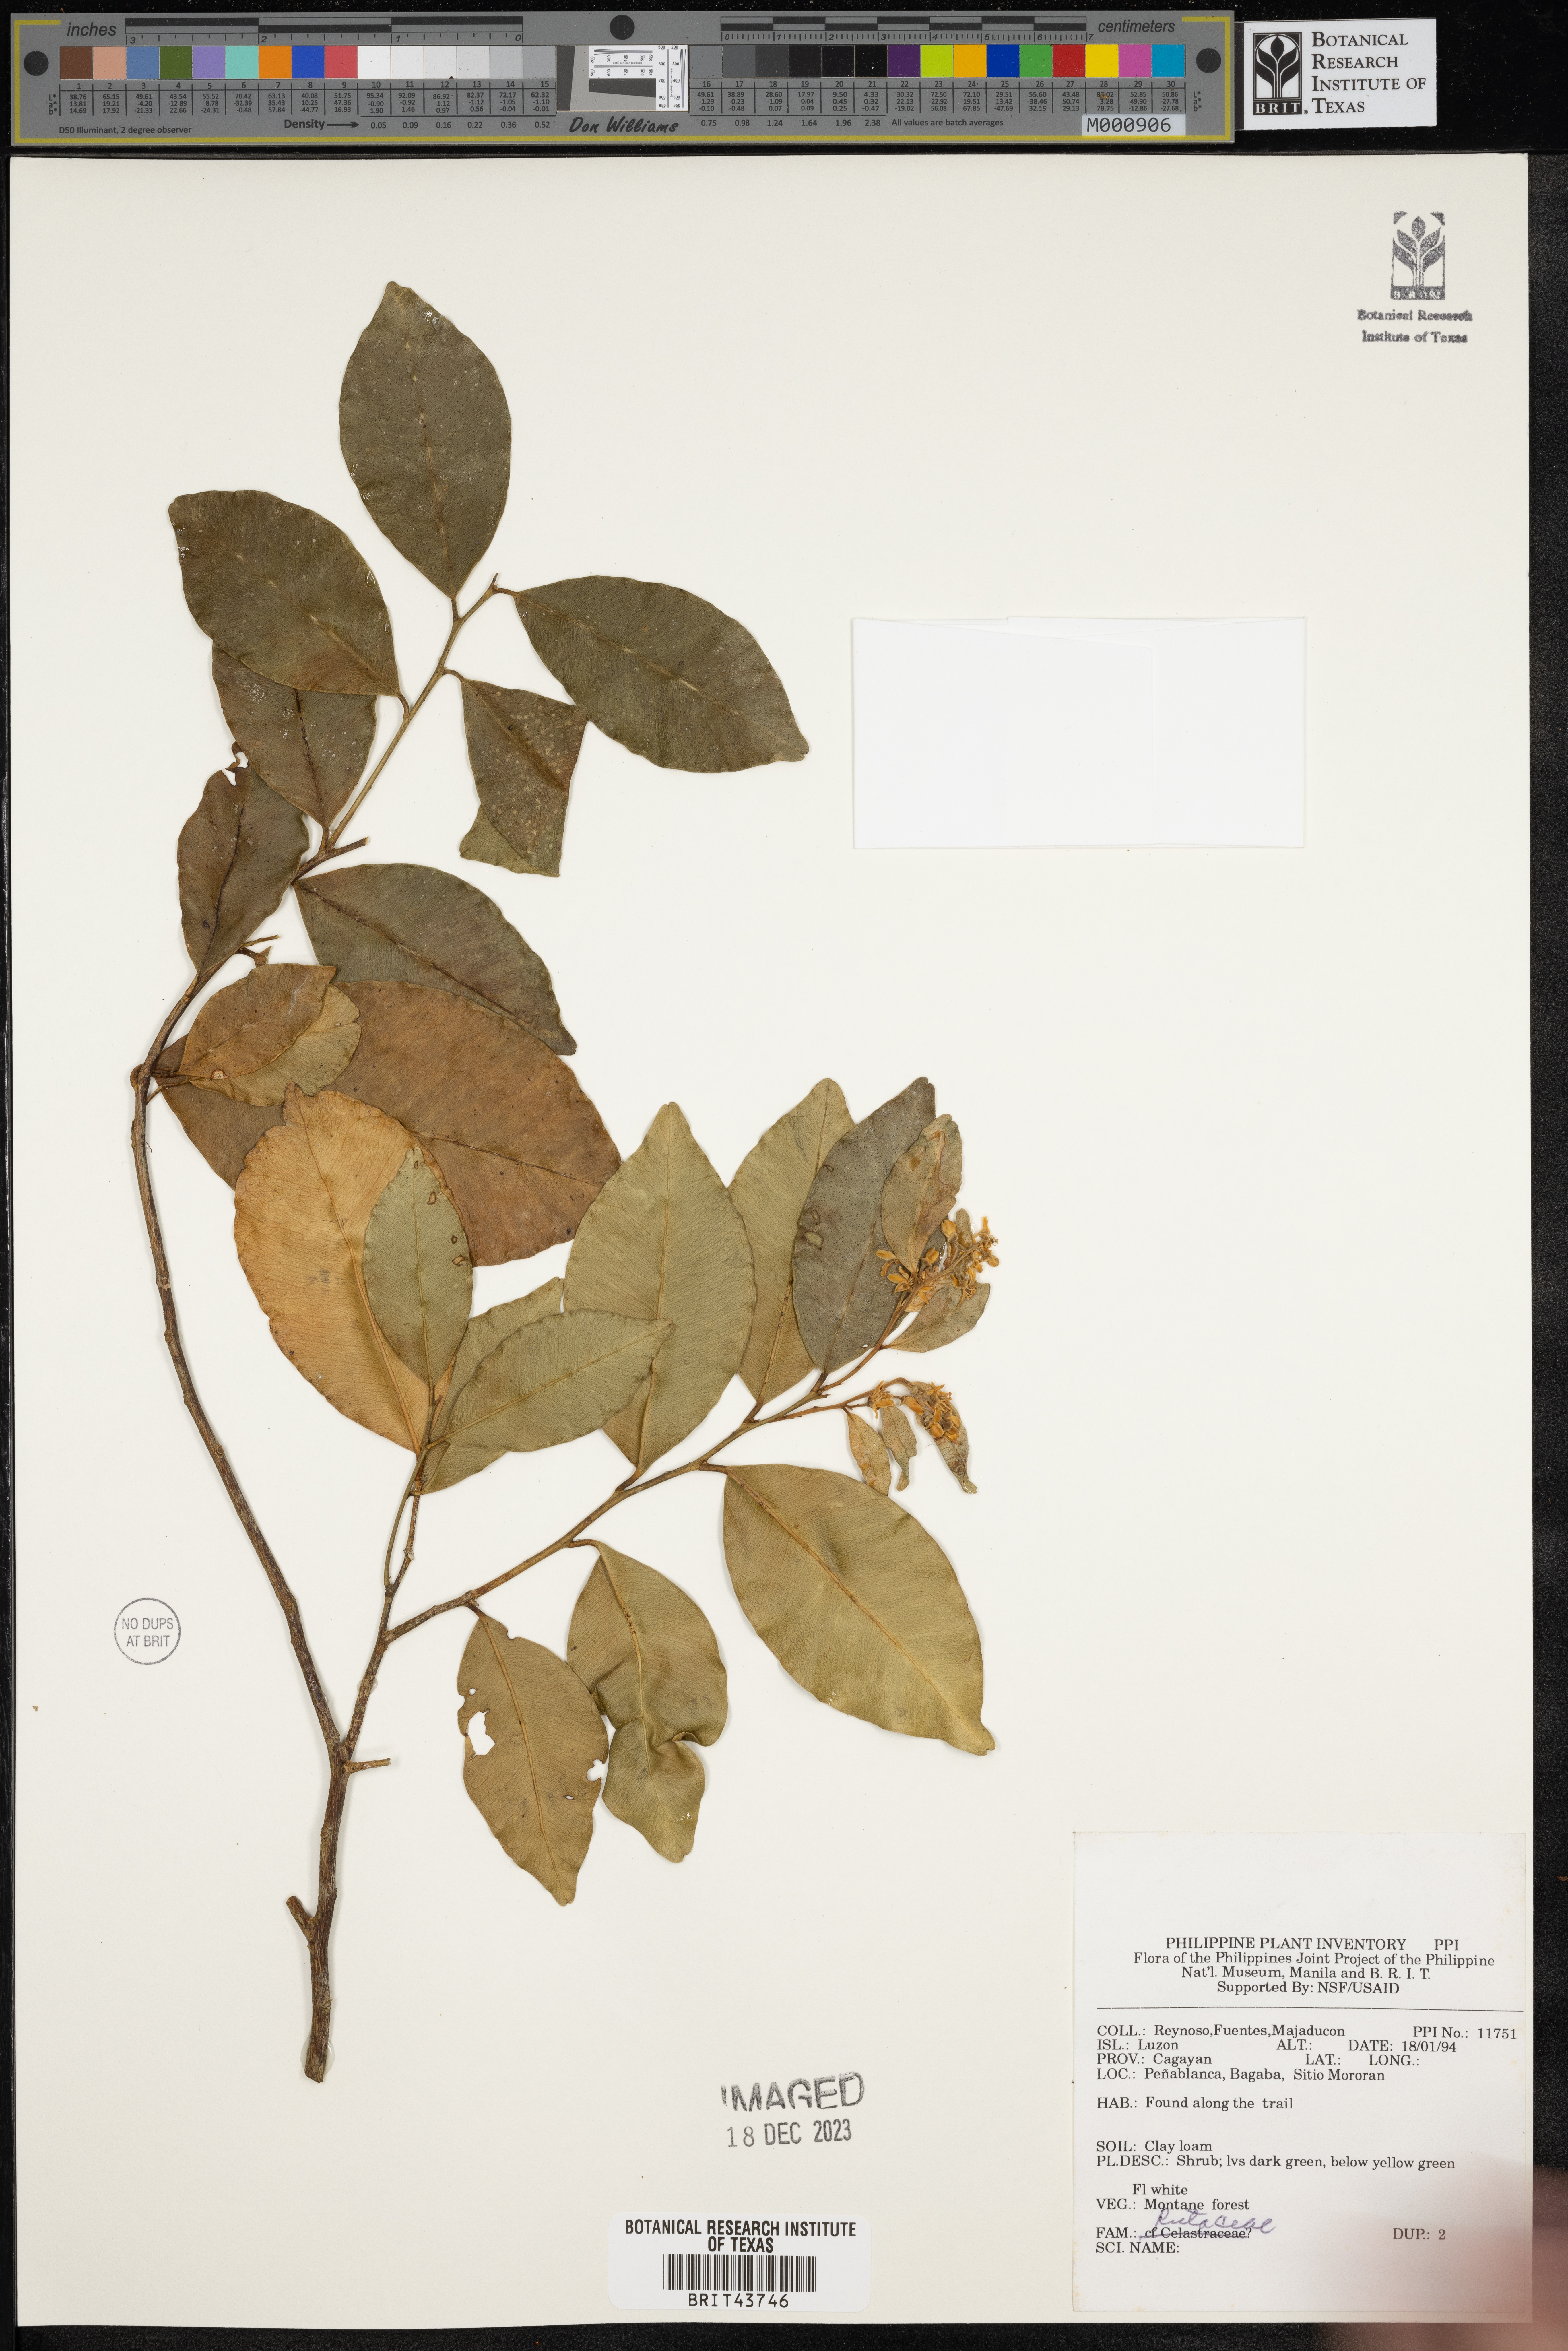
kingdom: Plantae
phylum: Tracheophyta
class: Magnoliopsida
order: Sapindales
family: Rutaceae
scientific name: Rutaceae
